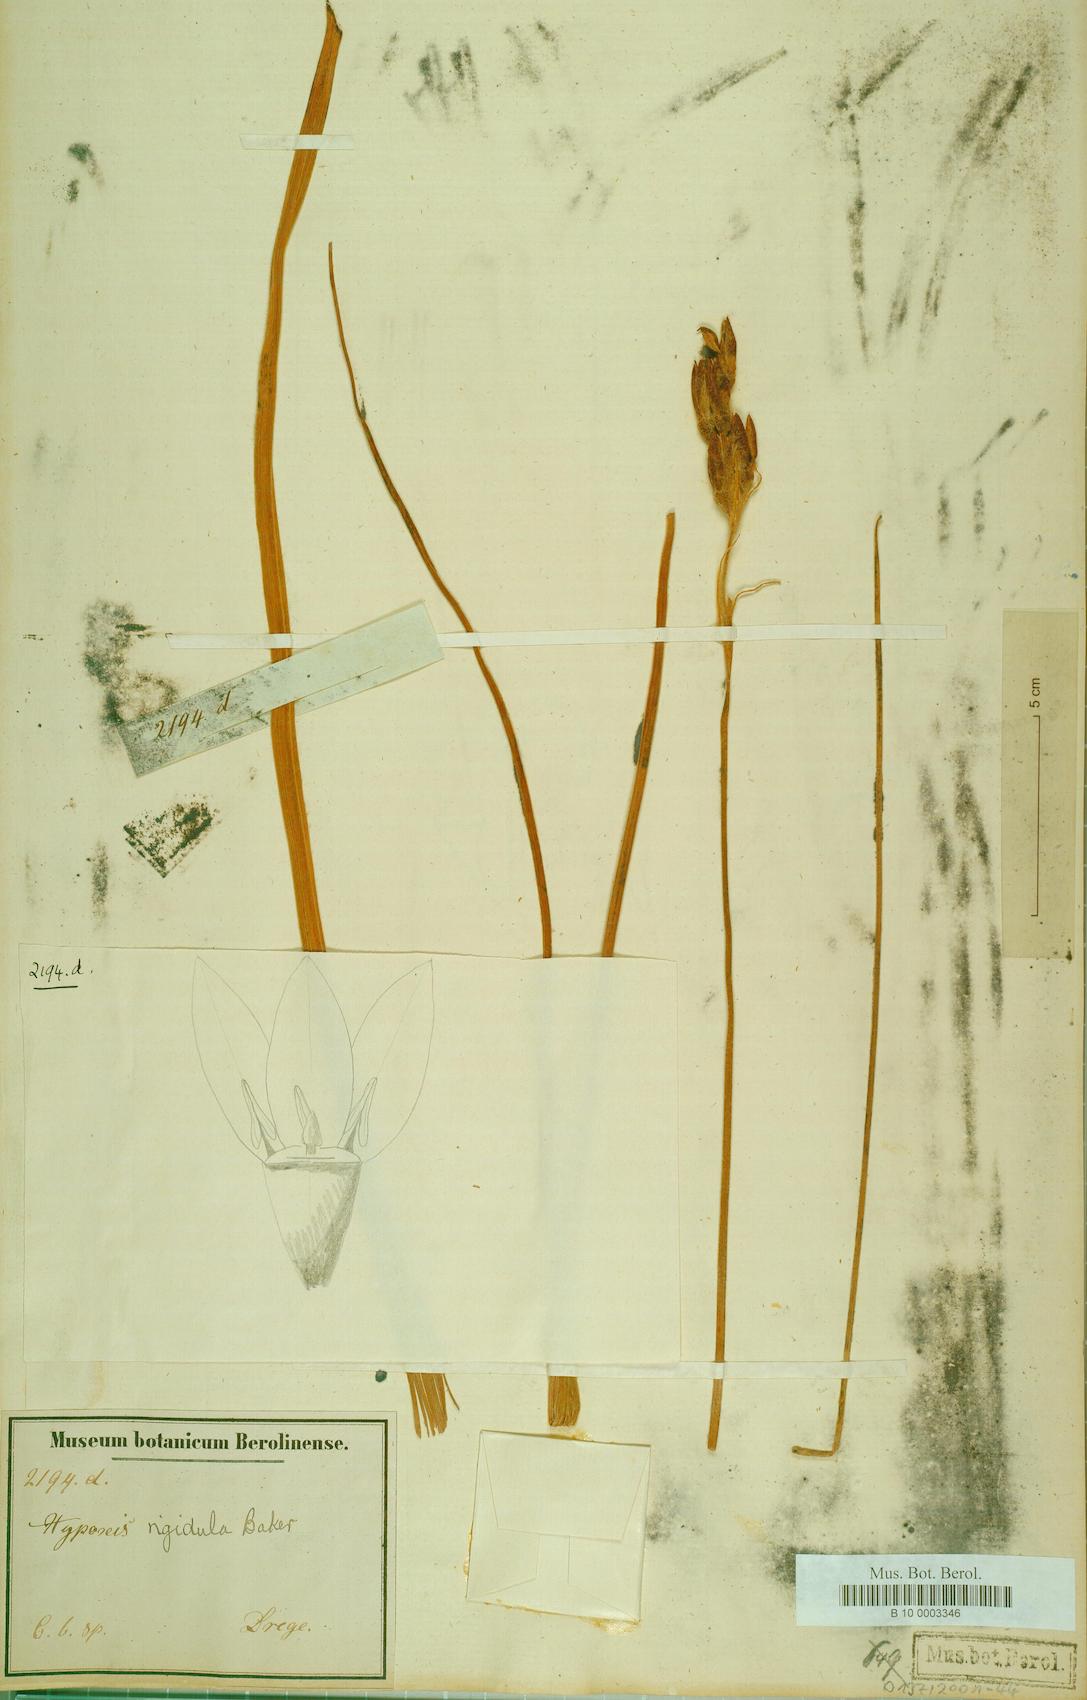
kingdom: Plantae
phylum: Tracheophyta
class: Liliopsida
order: Asparagales
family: Hypoxidaceae
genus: Hypoxis
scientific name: Hypoxis rigidula
